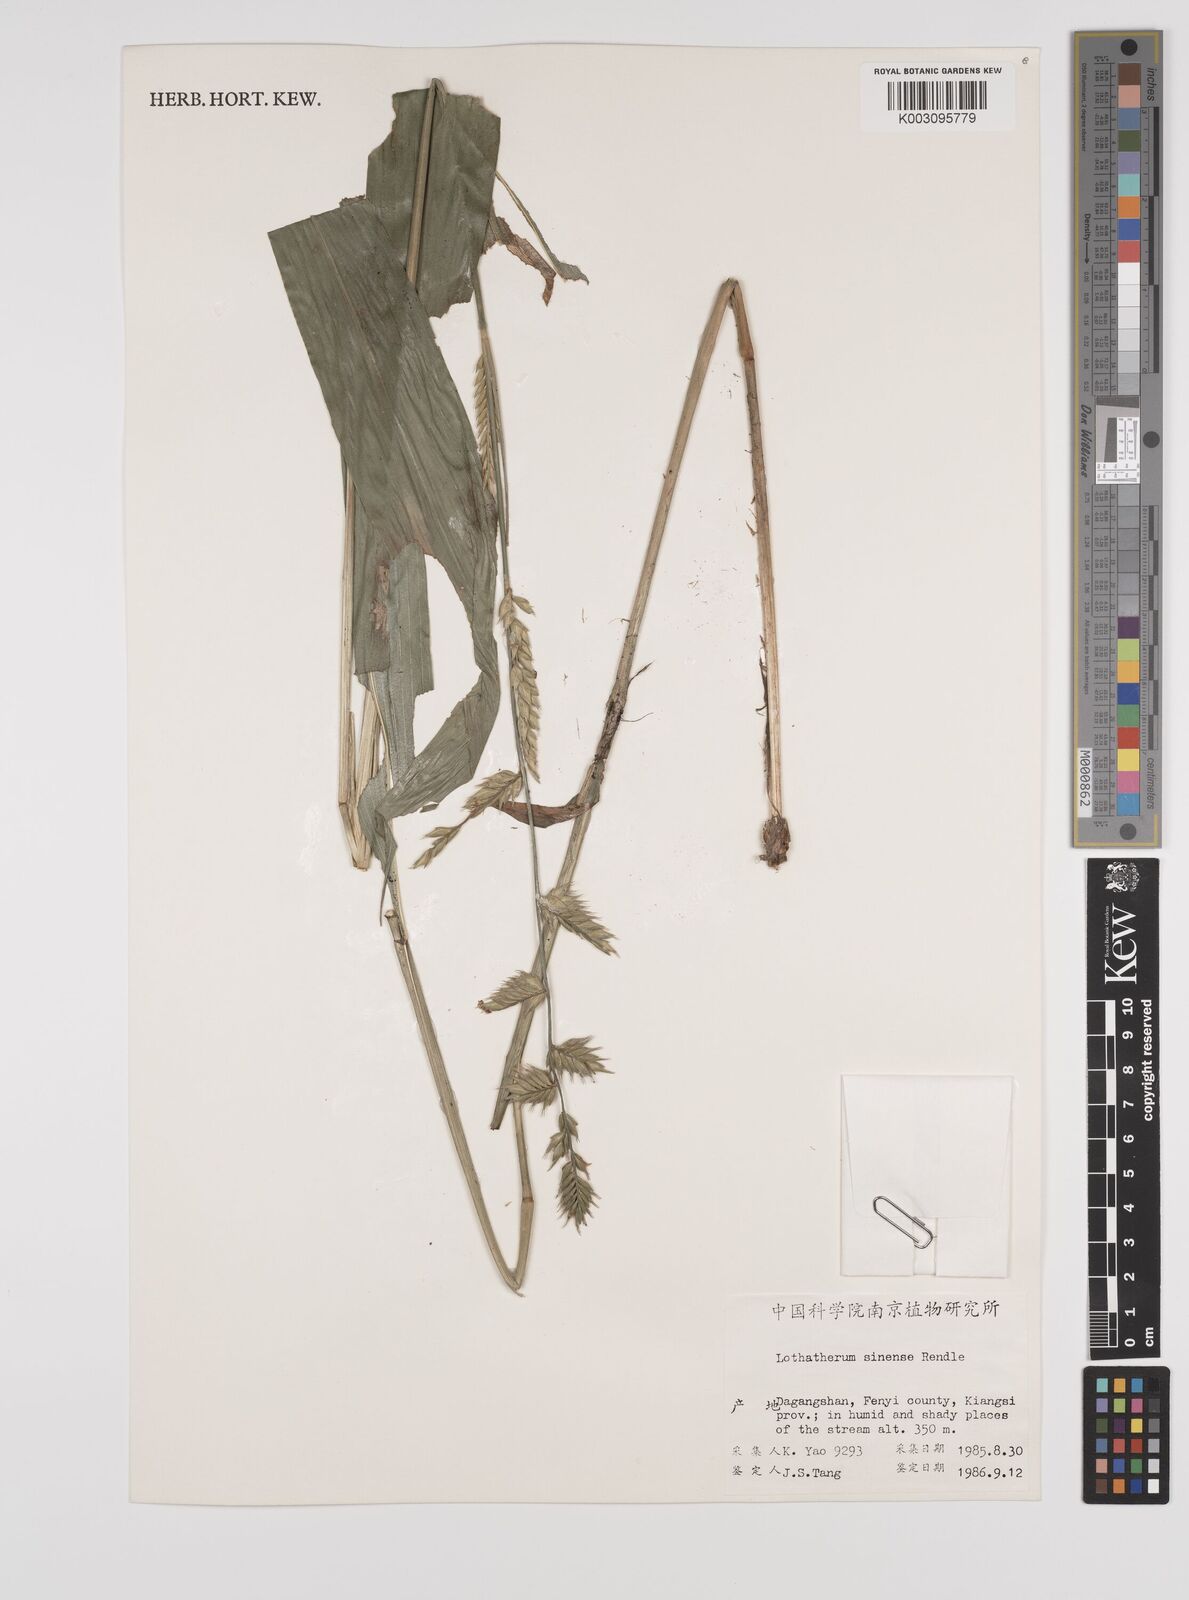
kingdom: Plantae
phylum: Tracheophyta
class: Liliopsida
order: Poales
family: Poaceae
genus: Lophatherum
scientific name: Lophatherum sinense
